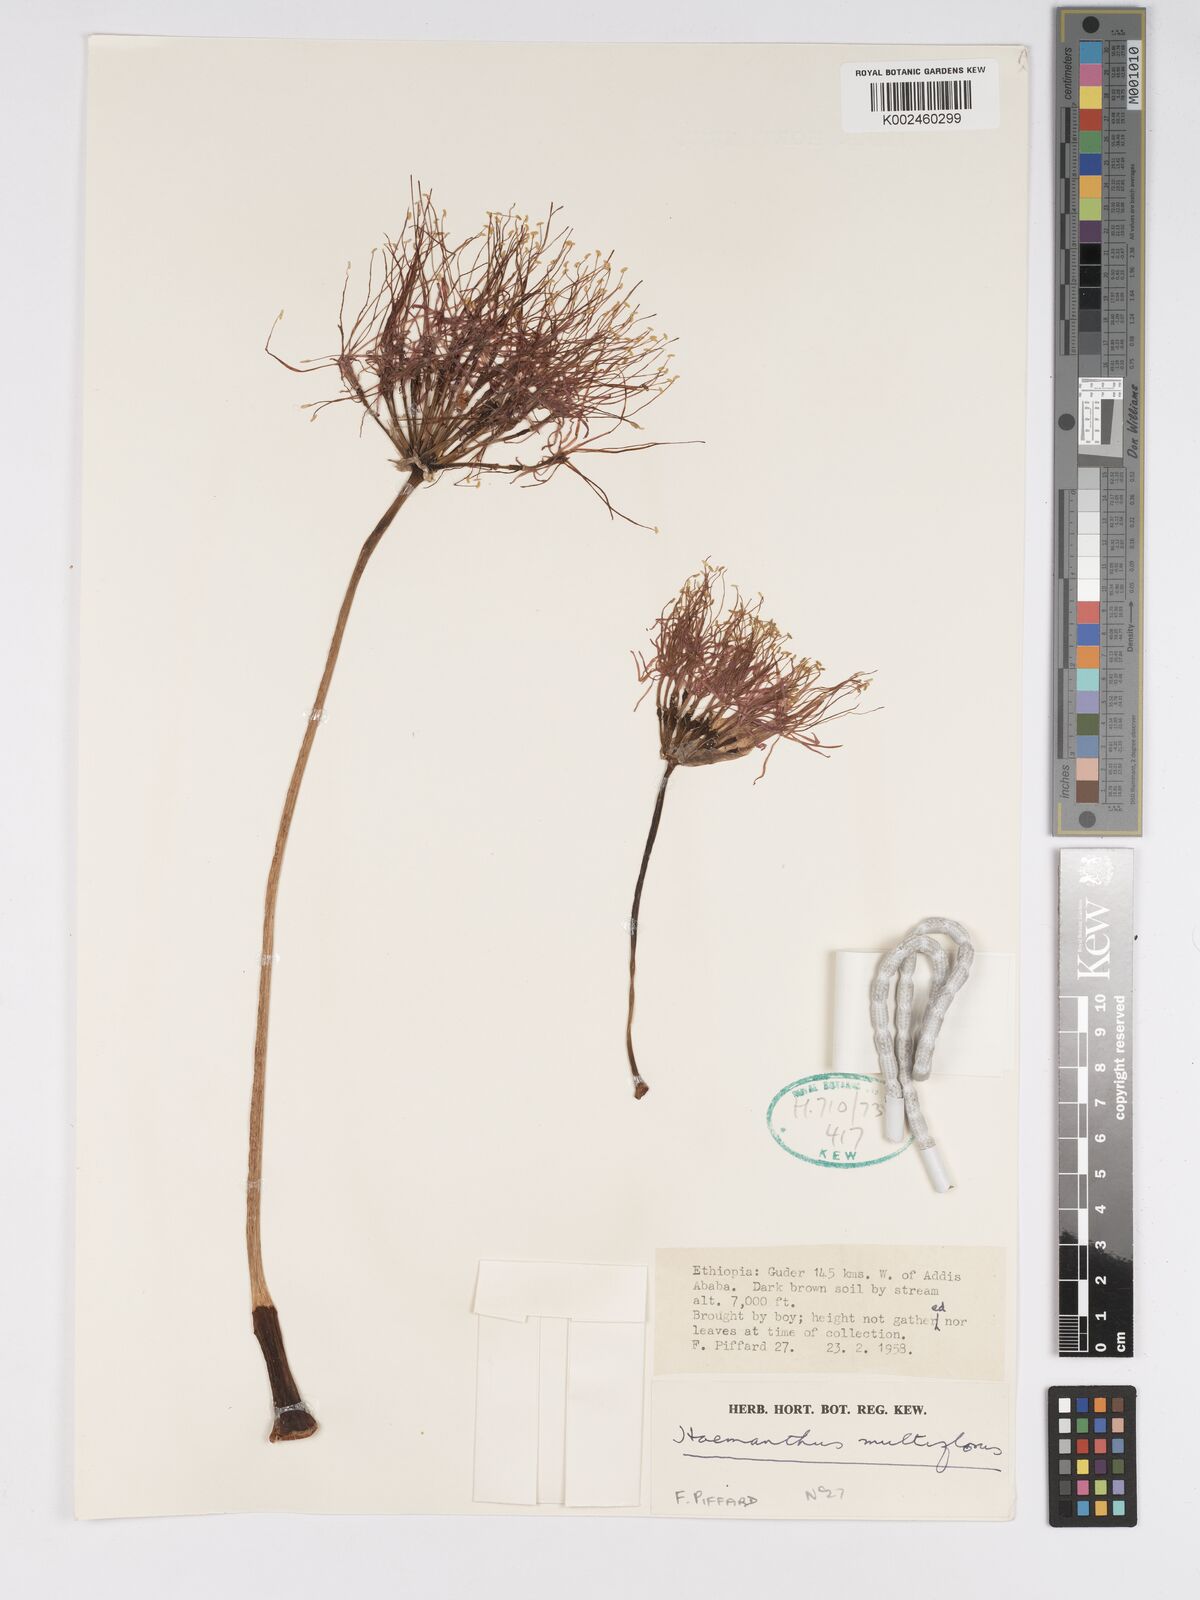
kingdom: Plantae
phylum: Tracheophyta
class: Liliopsida
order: Asparagales
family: Amaryllidaceae
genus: Scadoxus
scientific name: Scadoxus multiflorus
